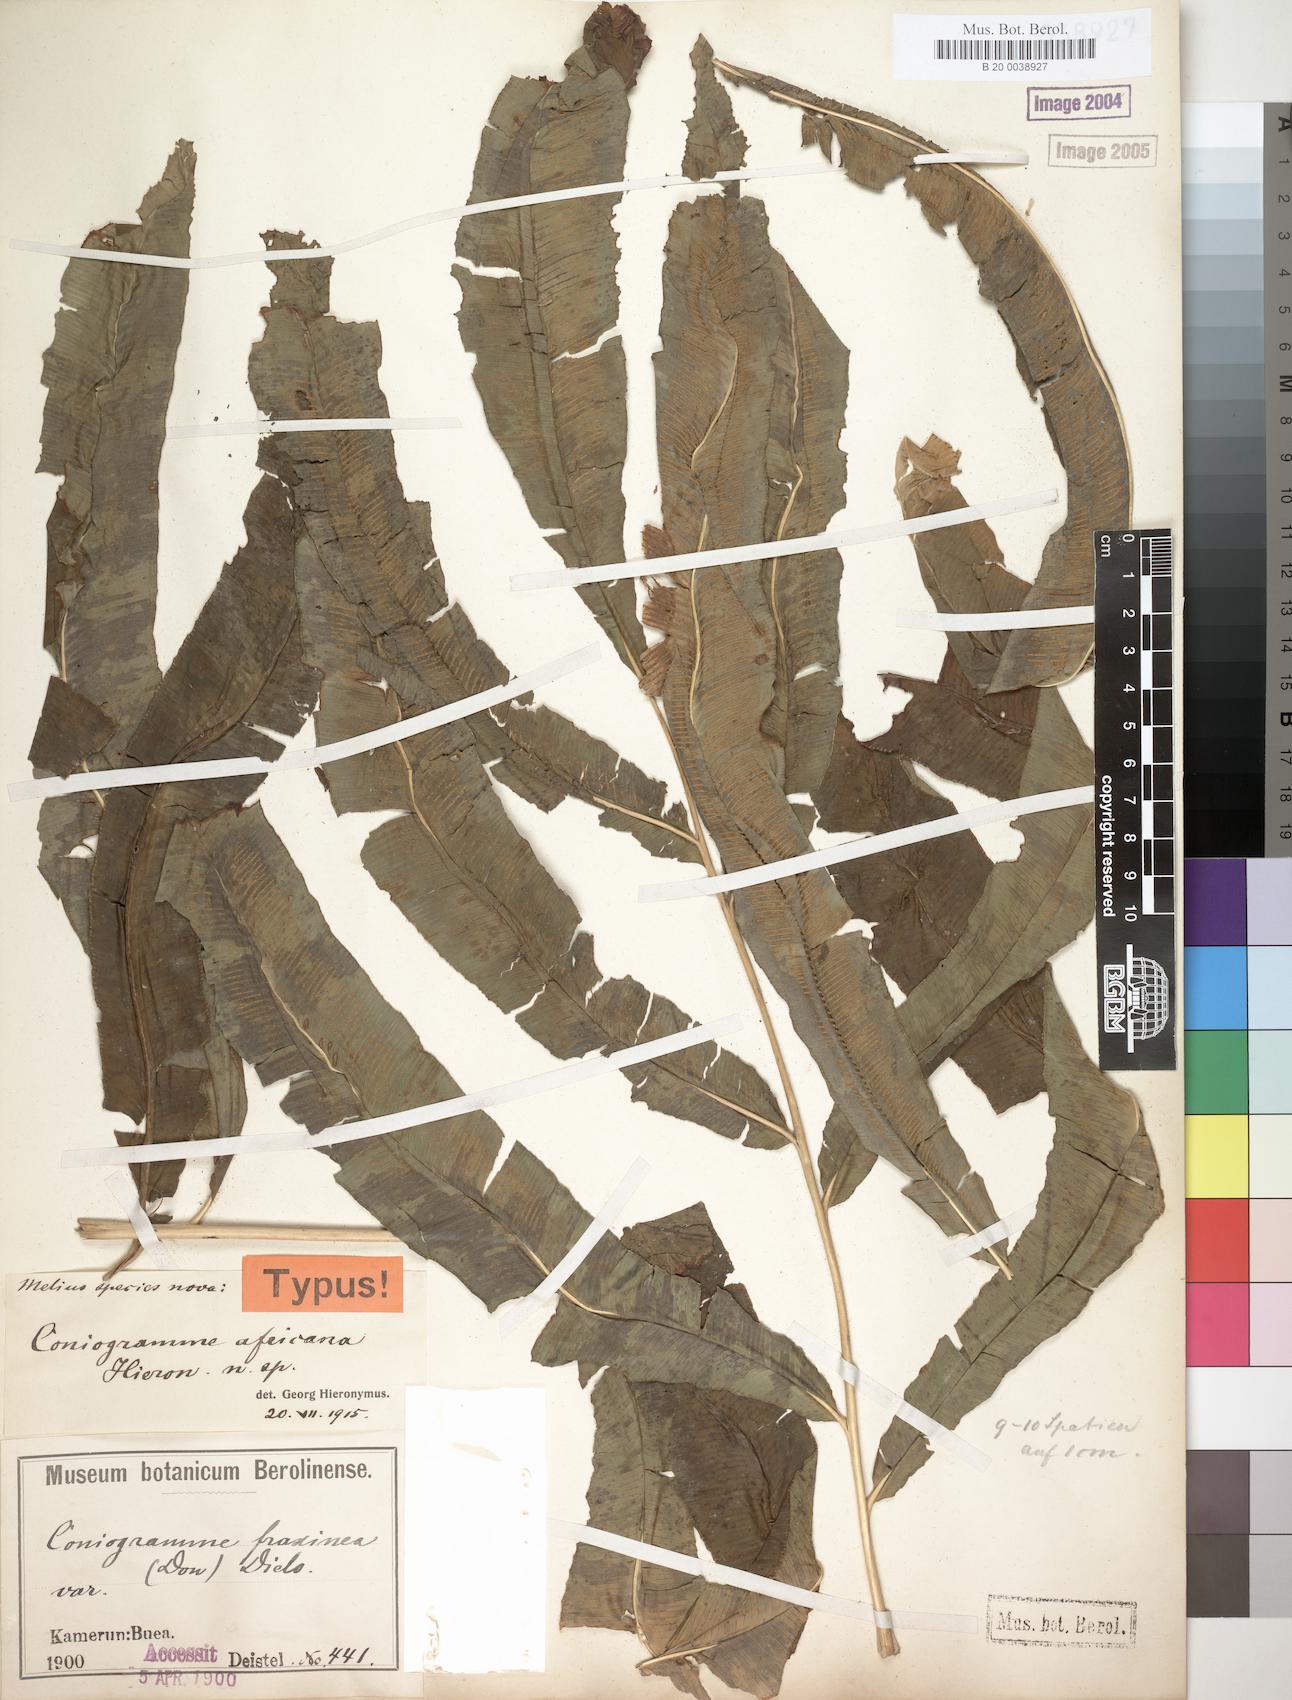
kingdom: Plantae
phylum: Tracheophyta
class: Polypodiopsida
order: Polypodiales
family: Pteridaceae
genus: Coniogramme
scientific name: Coniogramme africana
